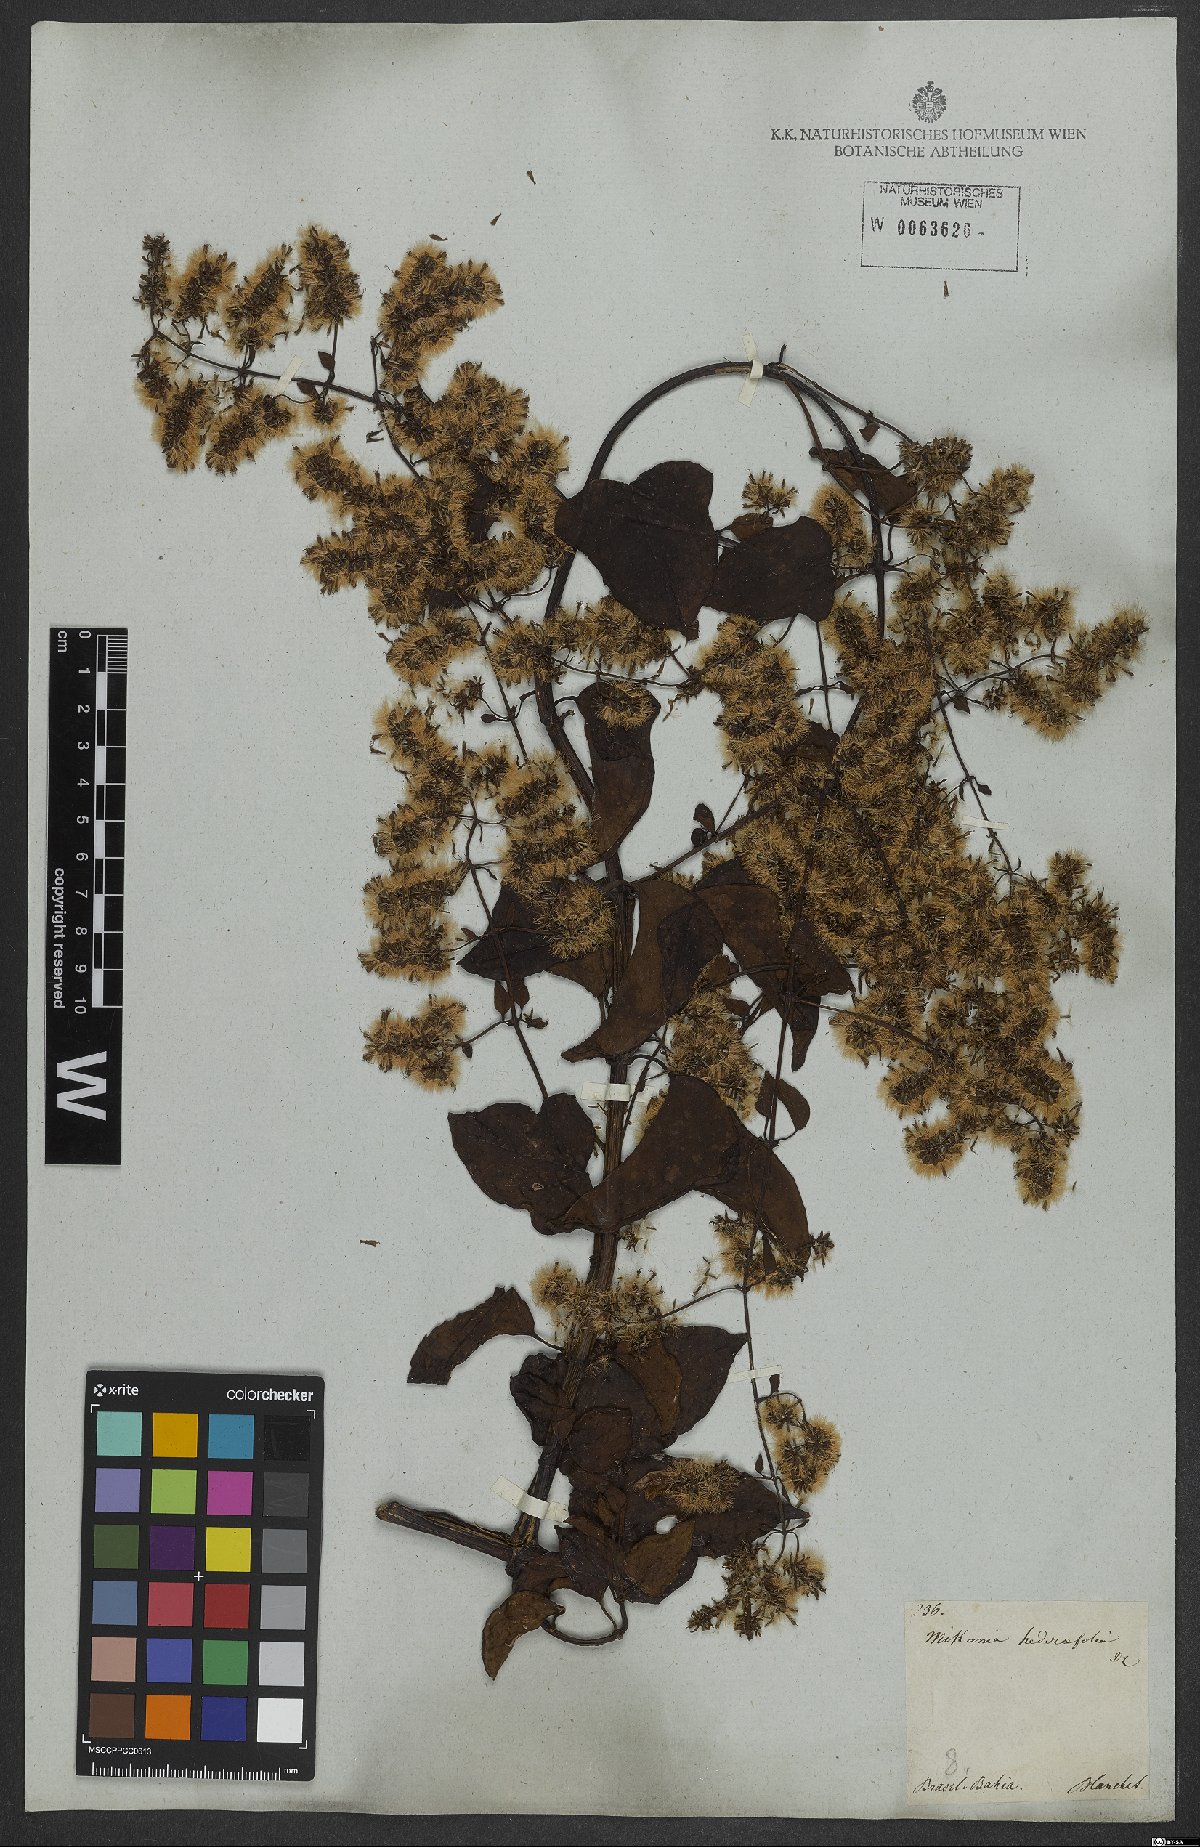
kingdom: Plantae
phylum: Tracheophyta
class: Magnoliopsida
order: Asterales
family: Asteraceae
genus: Mikania
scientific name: Mikania glomerata
